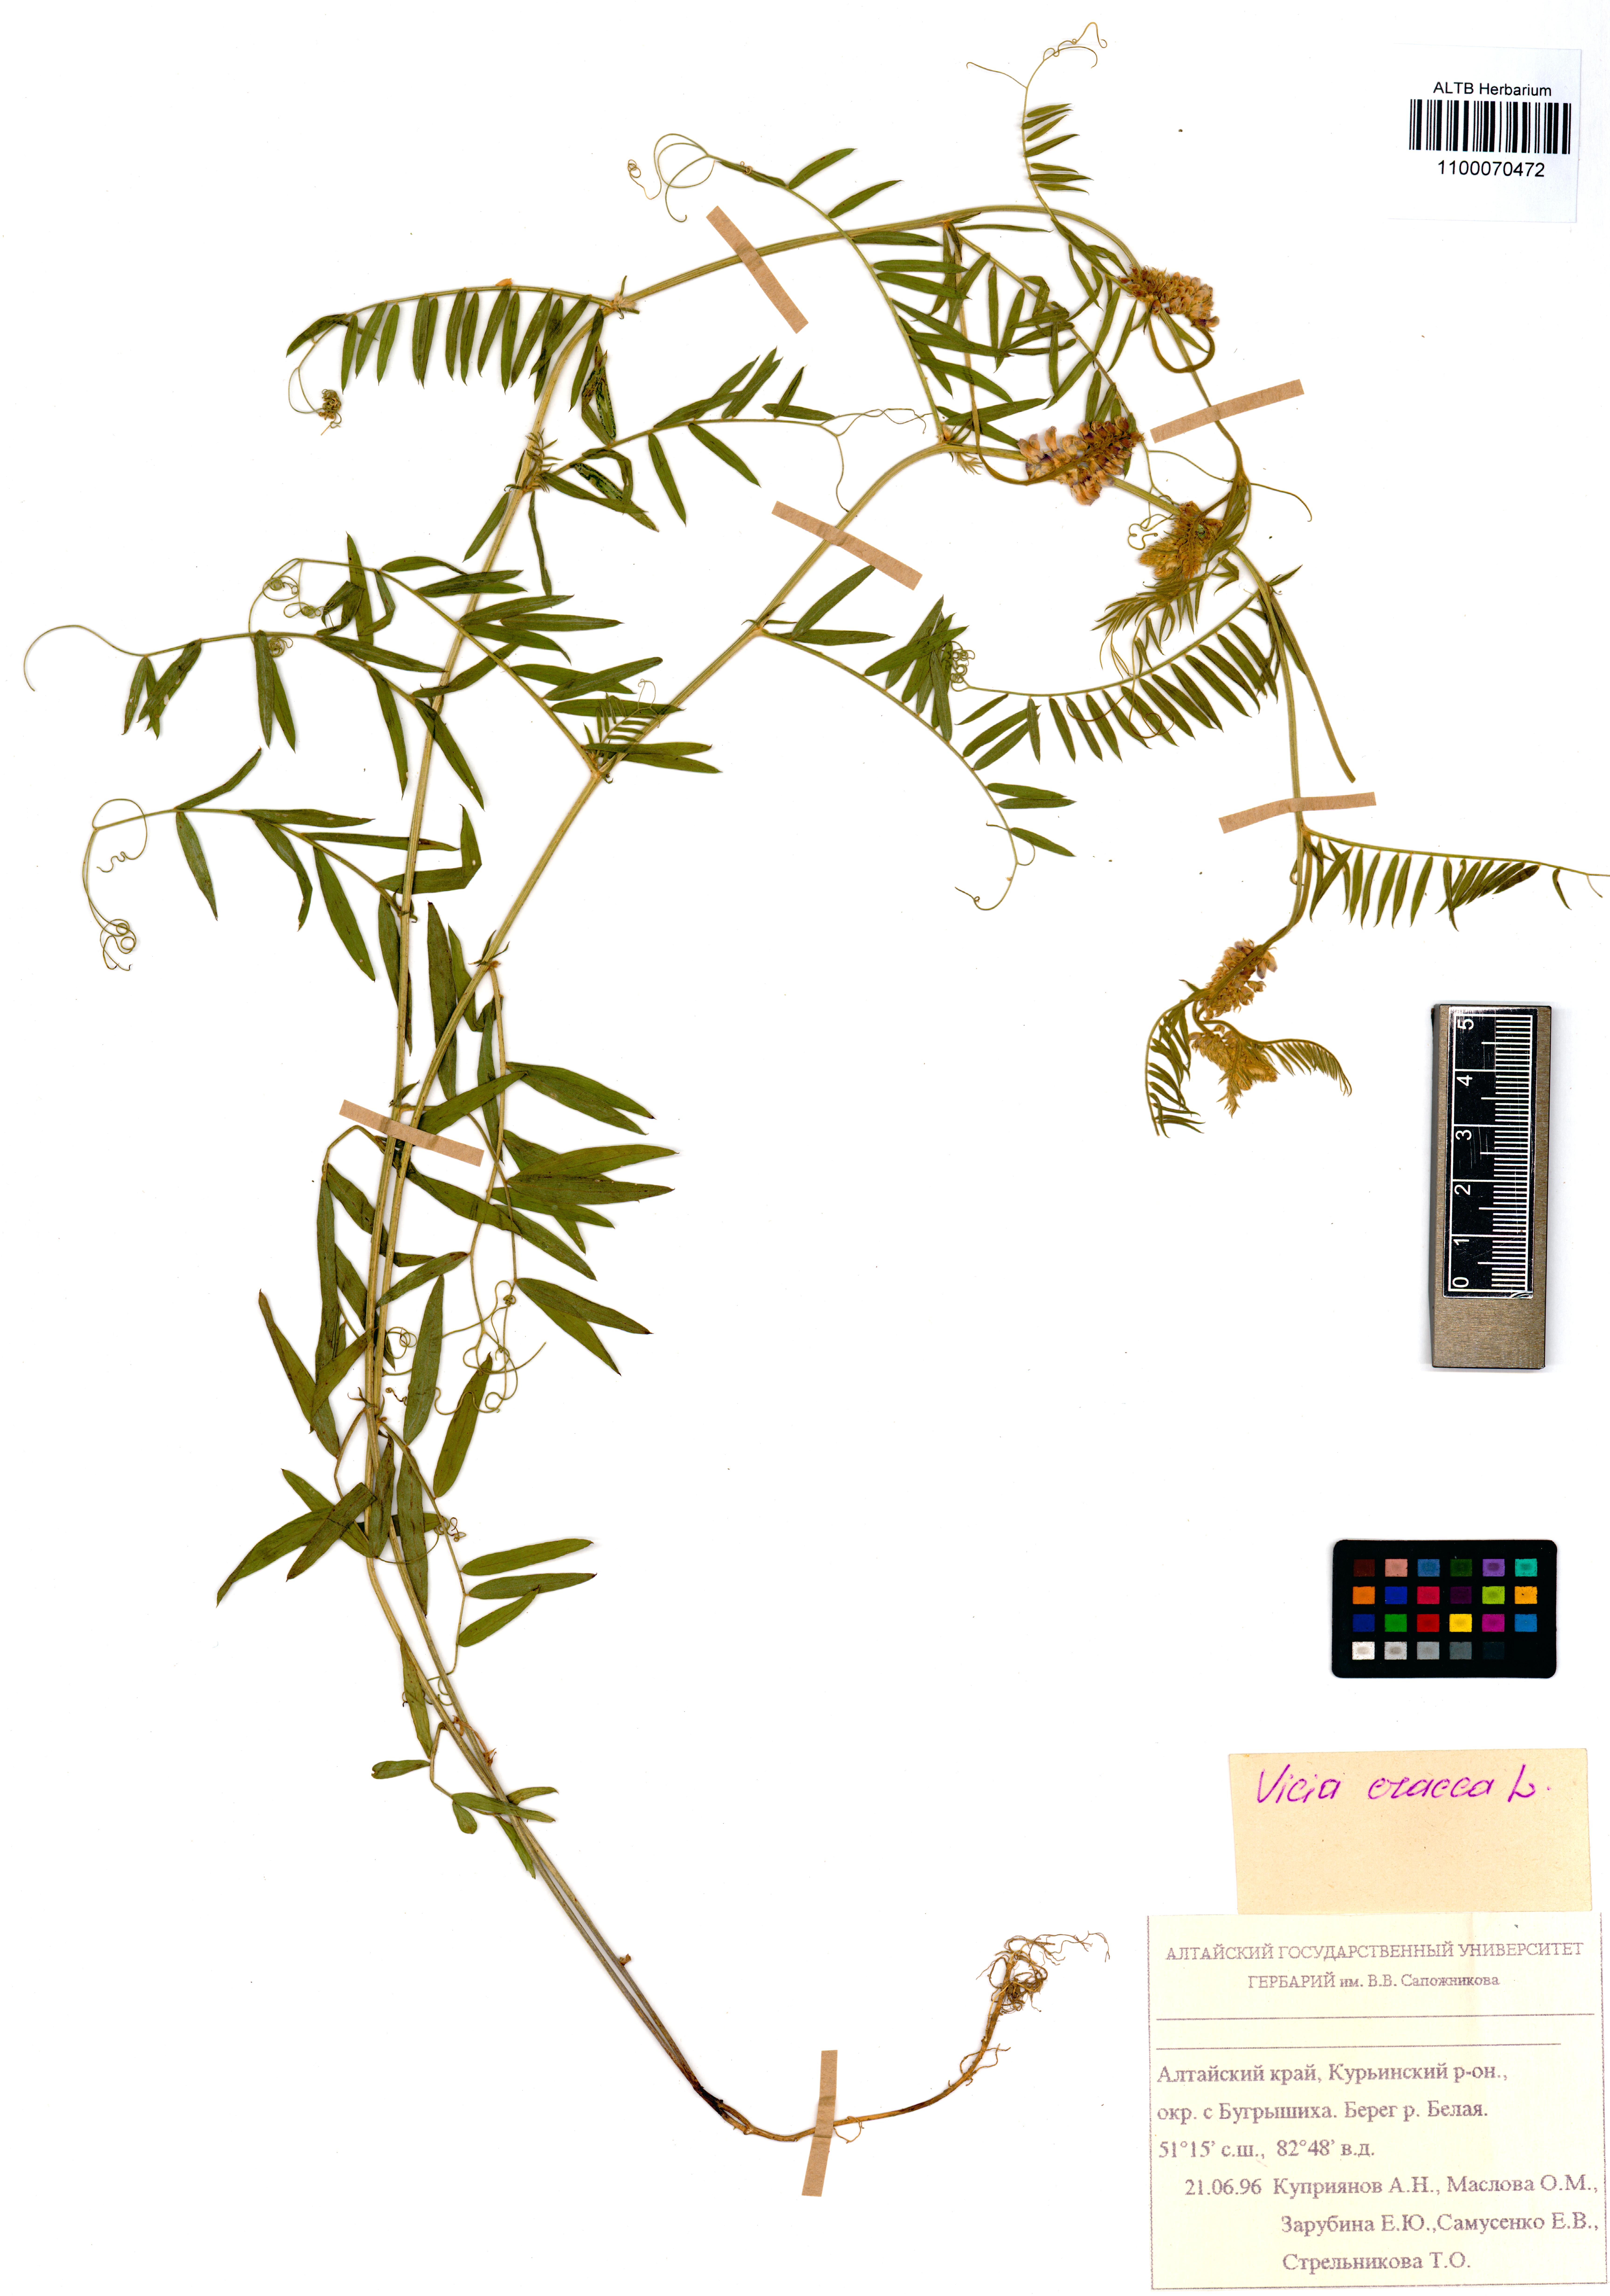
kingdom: Plantae
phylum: Tracheophyta
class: Magnoliopsida
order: Fabales
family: Fabaceae
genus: Vicia
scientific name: Vicia cracca
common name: Bird vetch
